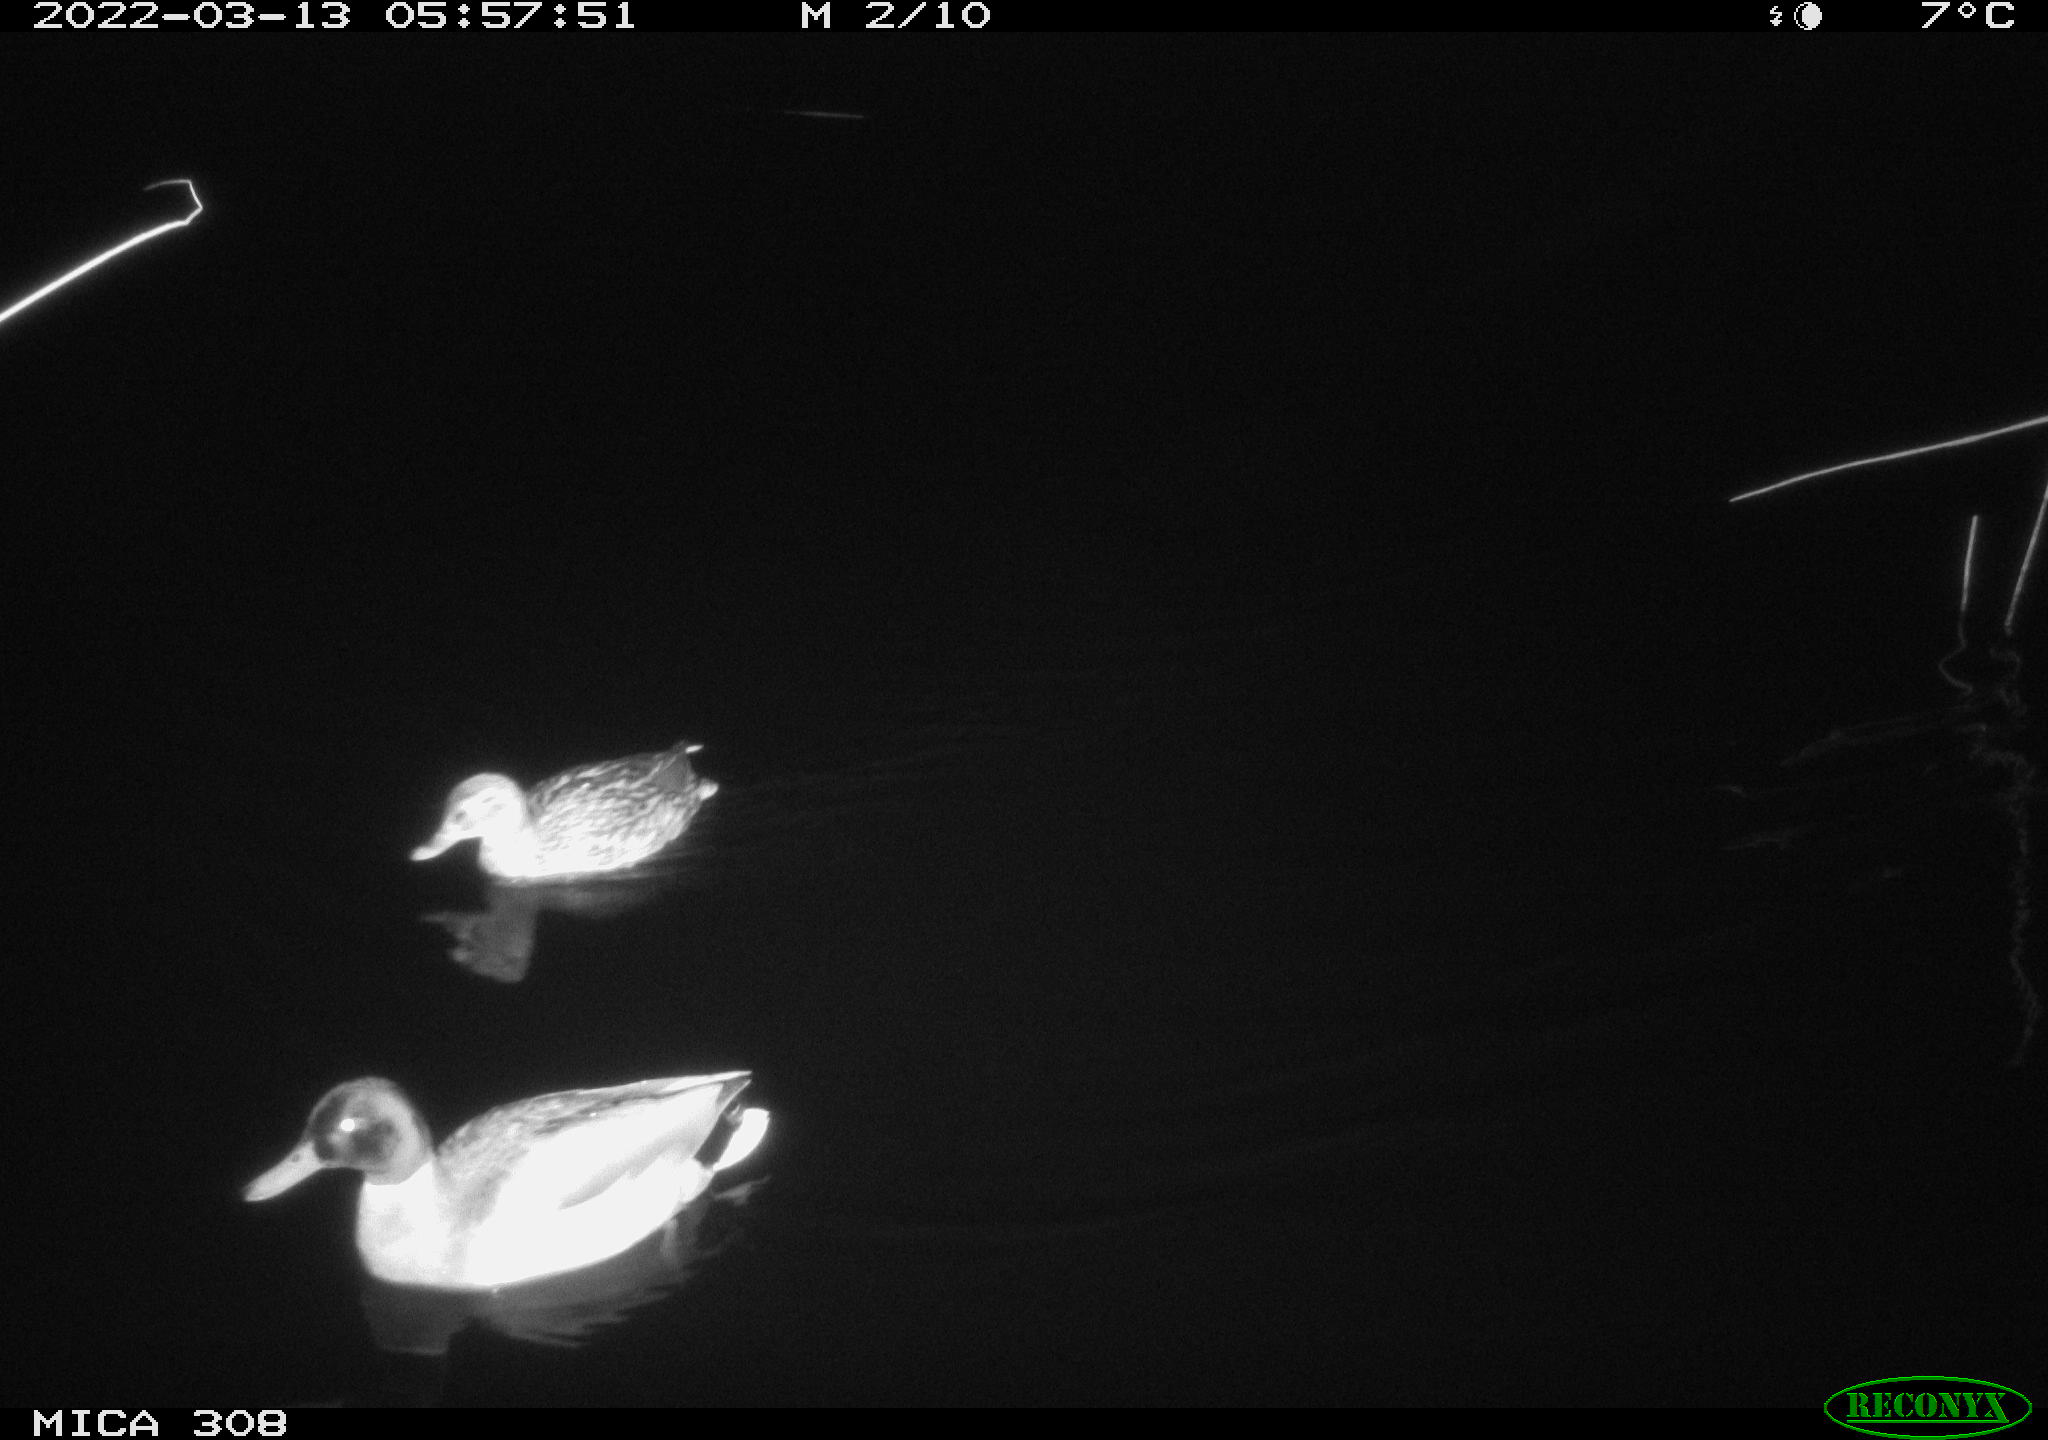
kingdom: Animalia
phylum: Chordata
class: Aves
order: Anseriformes
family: Anatidae
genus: Anas
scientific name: Anas platyrhynchos
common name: Mallard
